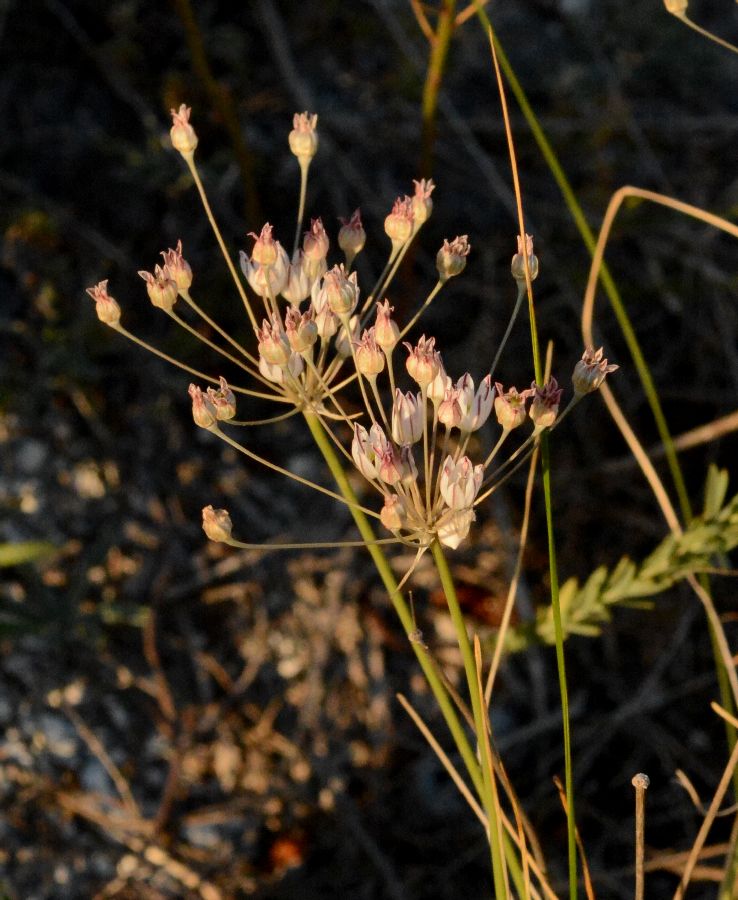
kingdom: Plantae
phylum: Tracheophyta
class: Liliopsida
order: Asparagales
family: Amaryllidaceae
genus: Allium
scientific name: Allium inaequale
